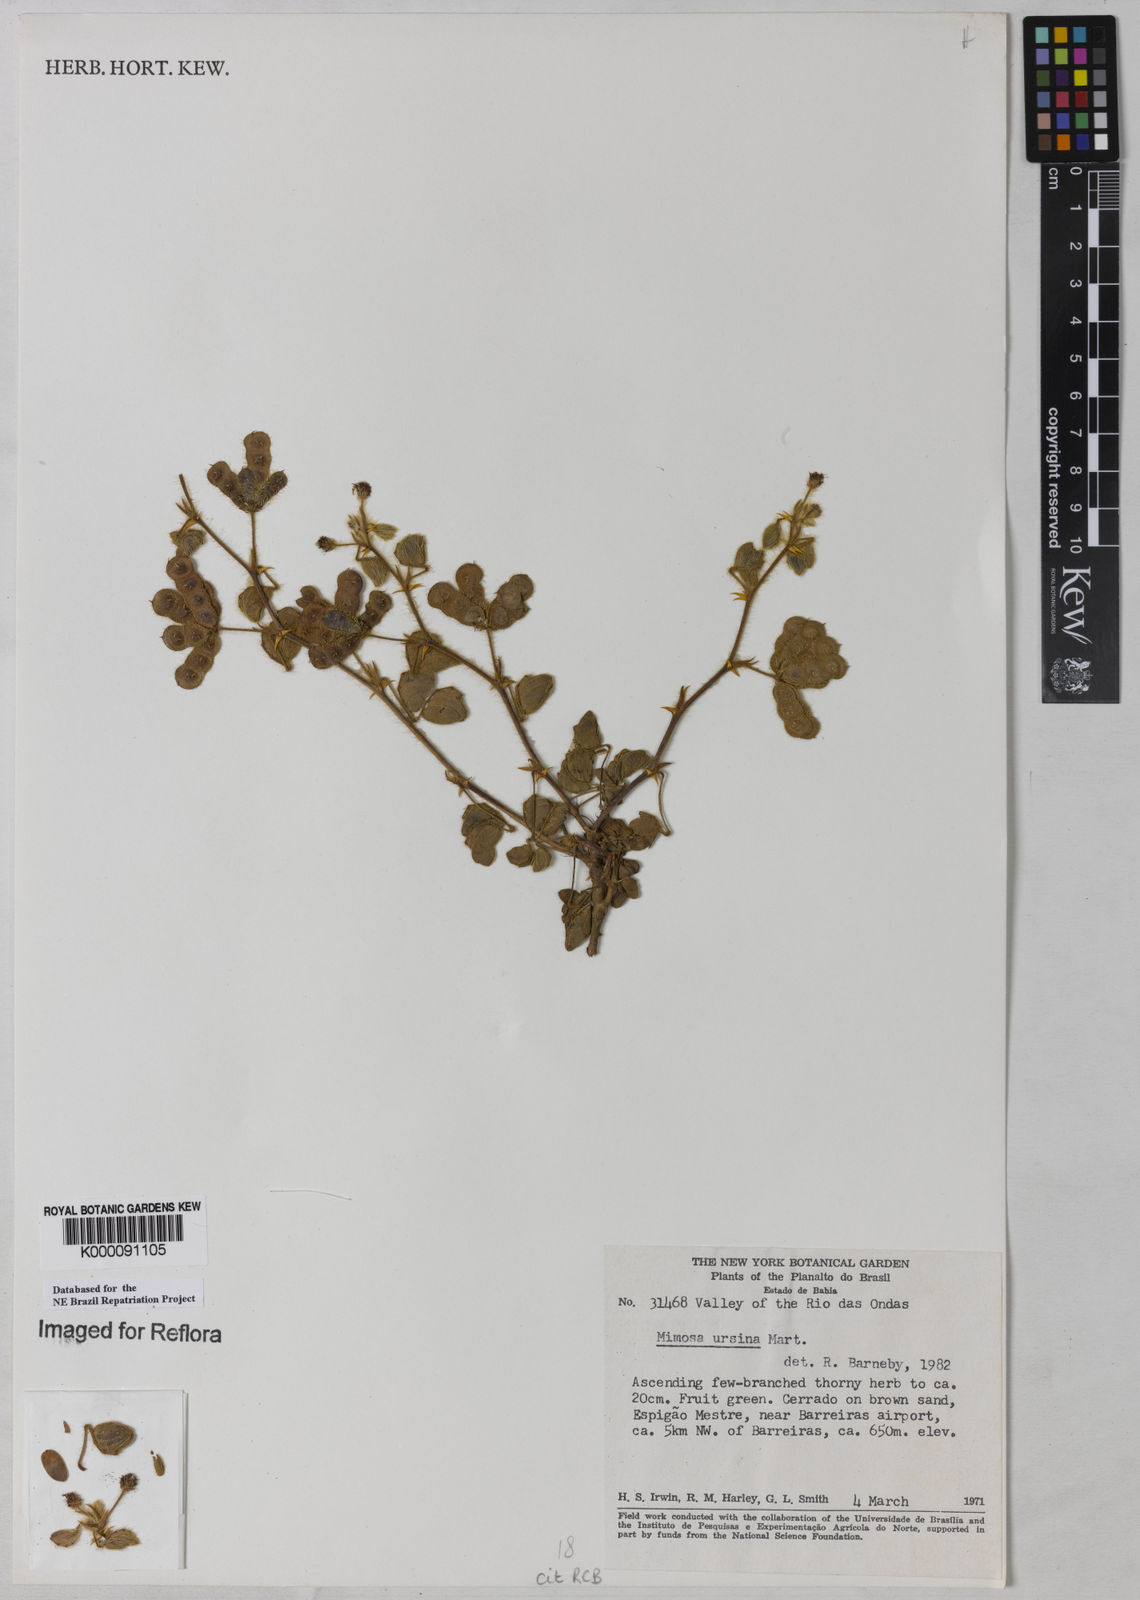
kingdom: Plantae
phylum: Tracheophyta
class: Magnoliopsida
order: Fabales
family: Fabaceae
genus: Mimosa
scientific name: Mimosa ursina
